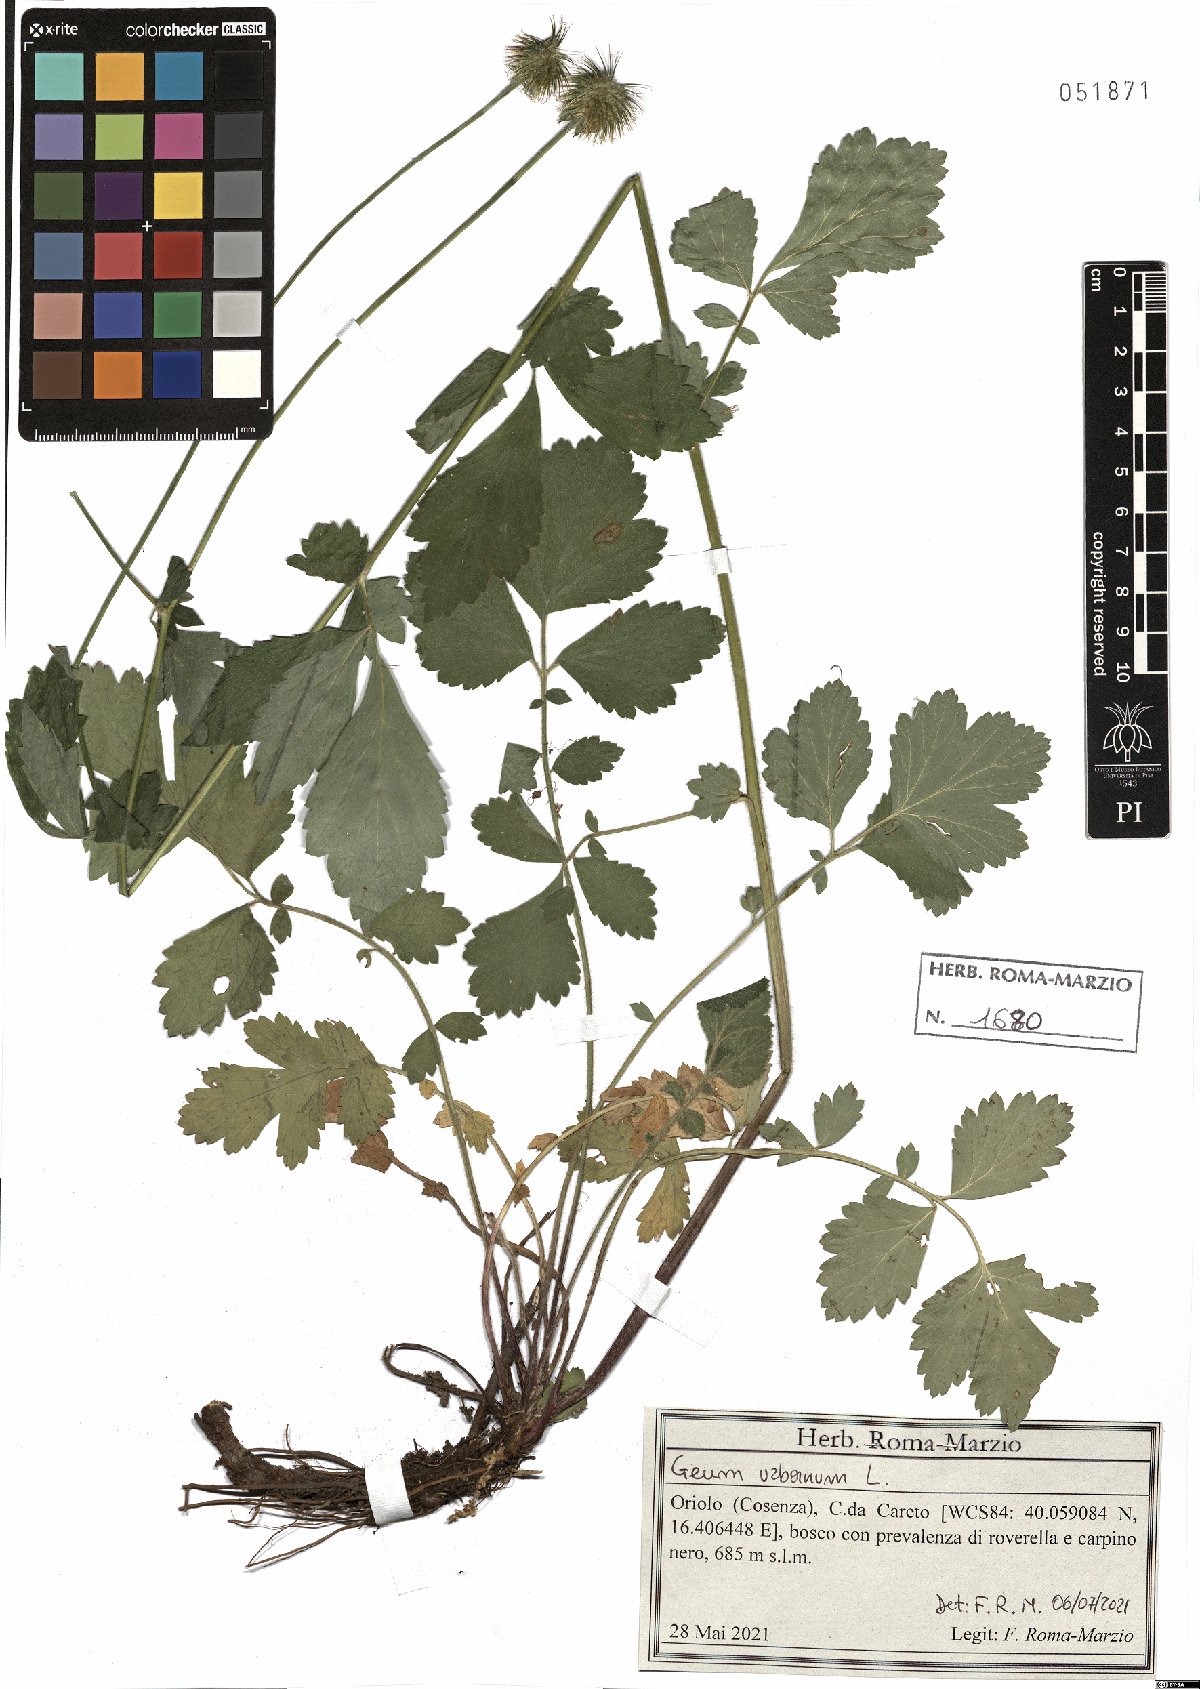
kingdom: Plantae
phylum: Tracheophyta
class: Magnoliopsida
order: Rosales
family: Rosaceae
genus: Geum
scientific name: Geum urbanum
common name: Wood avens
